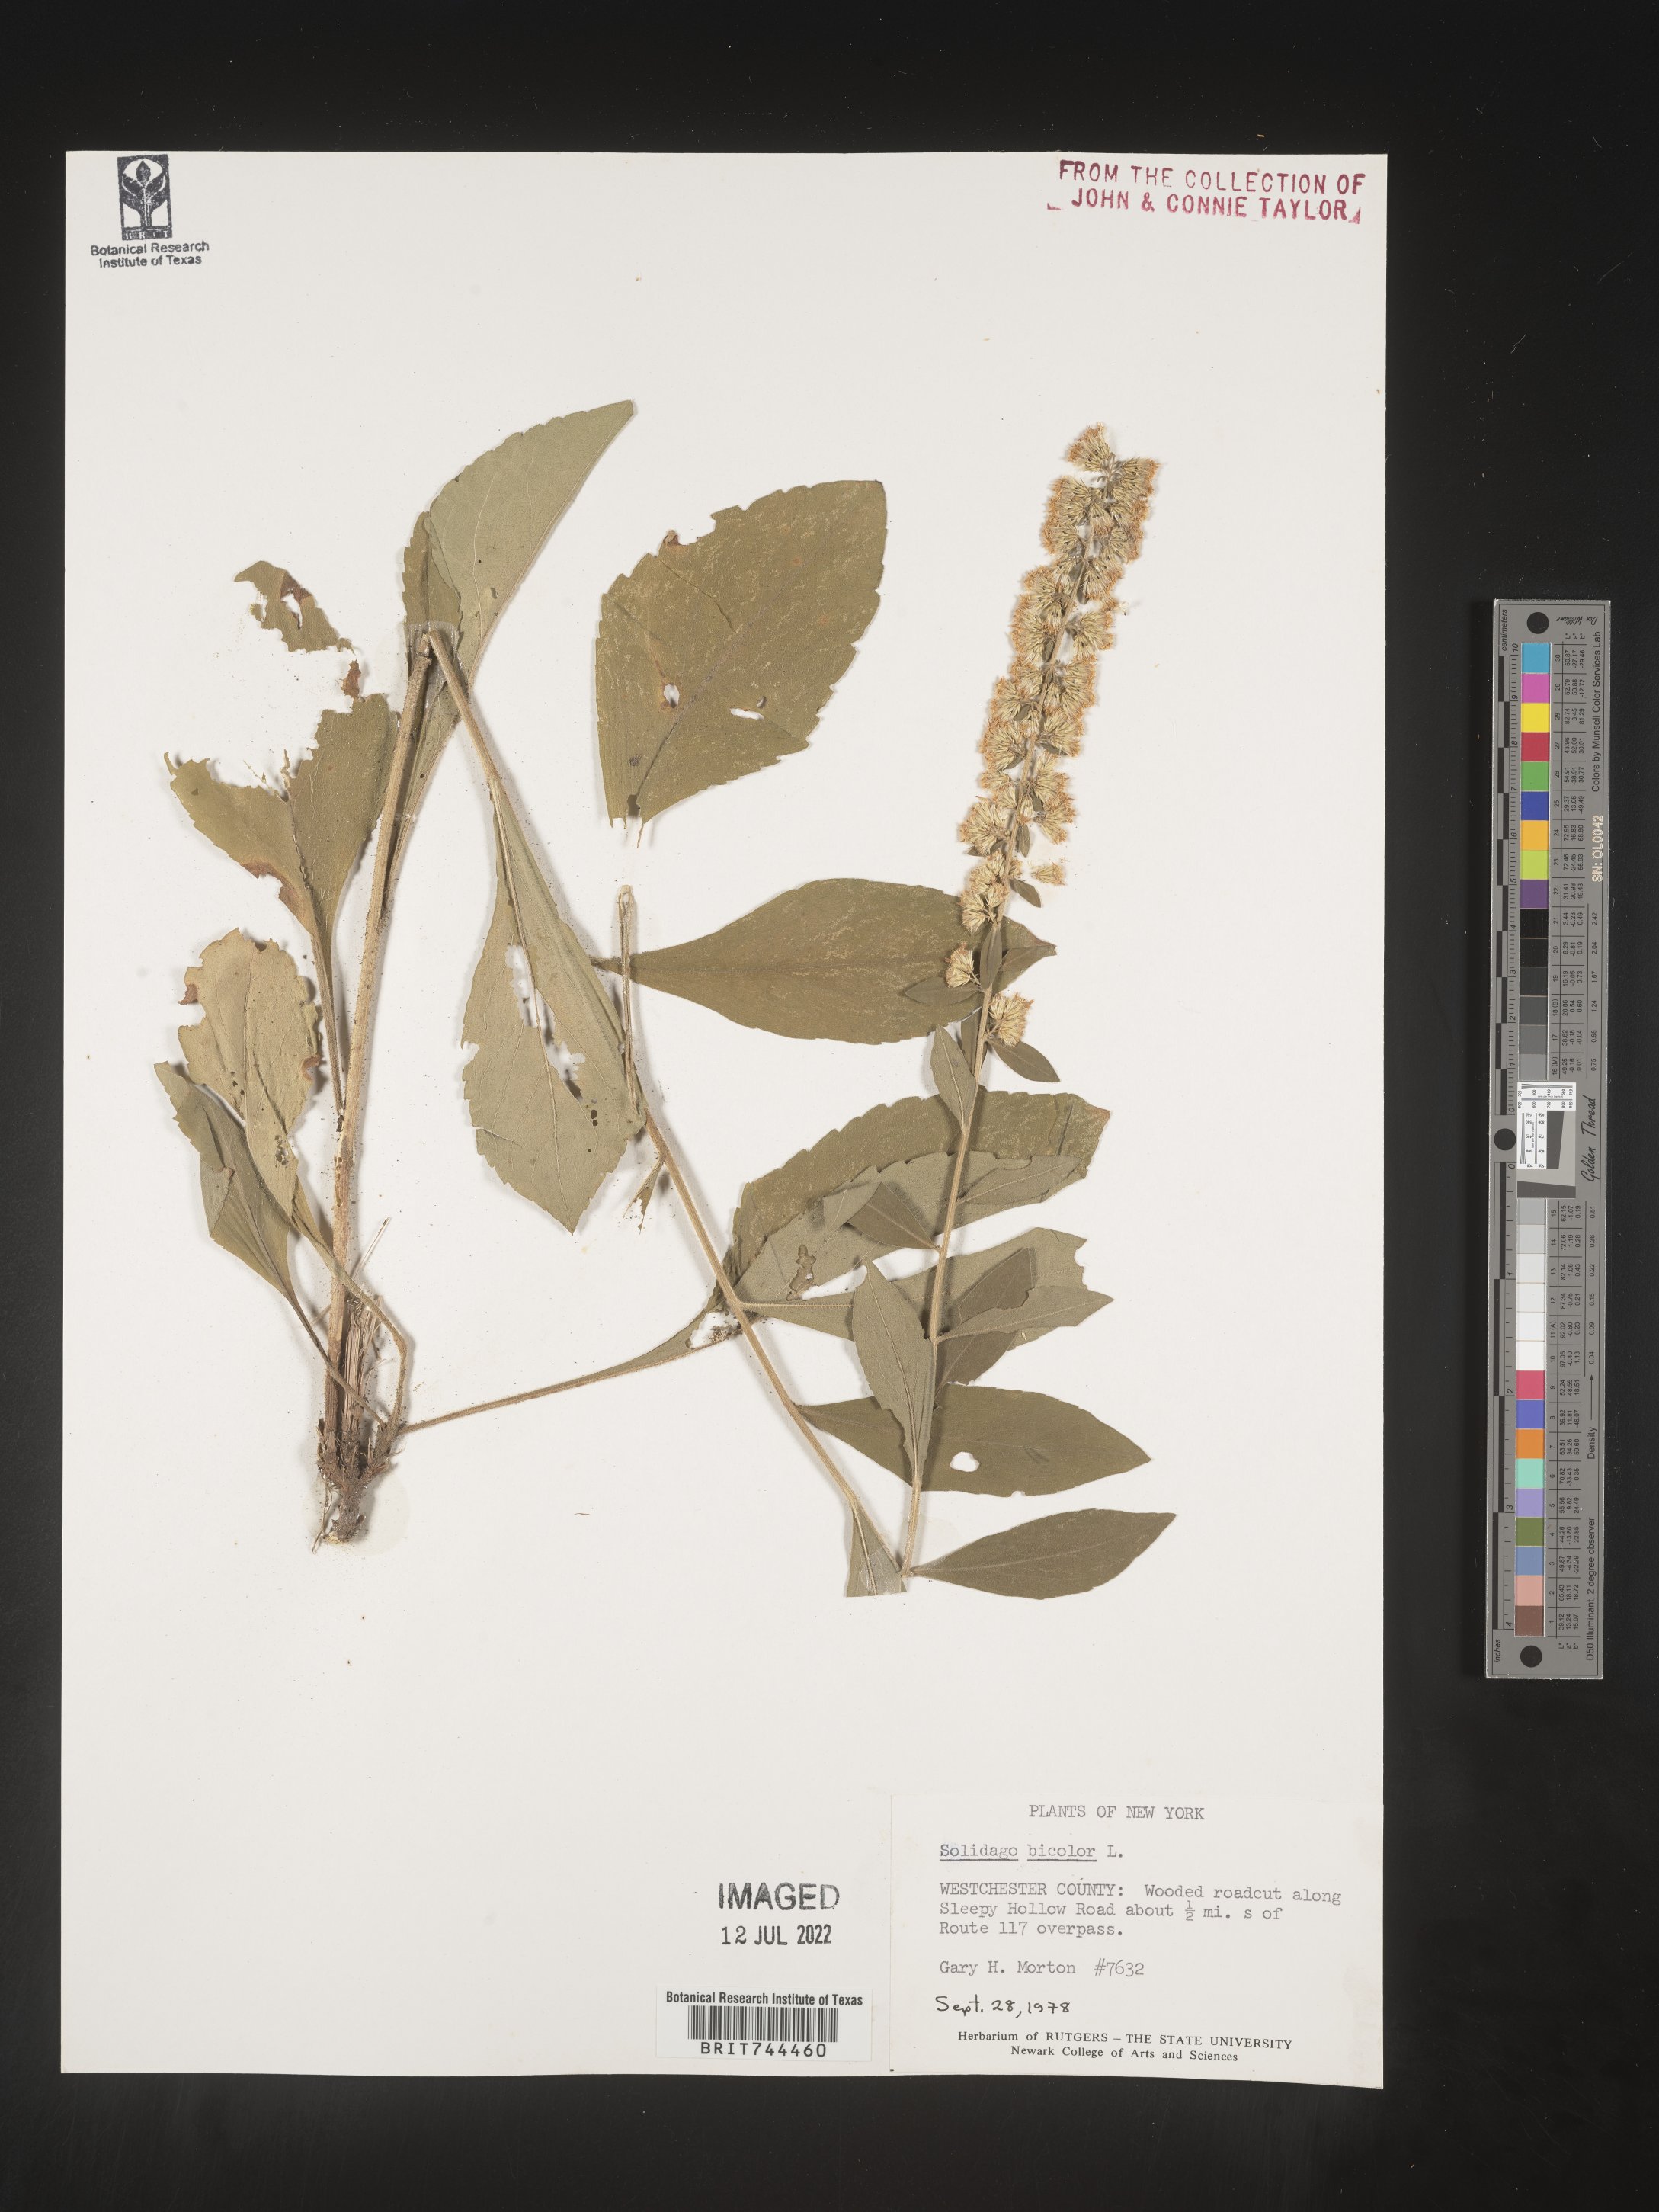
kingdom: Plantae
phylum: Tracheophyta
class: Magnoliopsida
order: Asterales
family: Asteraceae
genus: Solidago
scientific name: Solidago bicolor
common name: Silverrod
